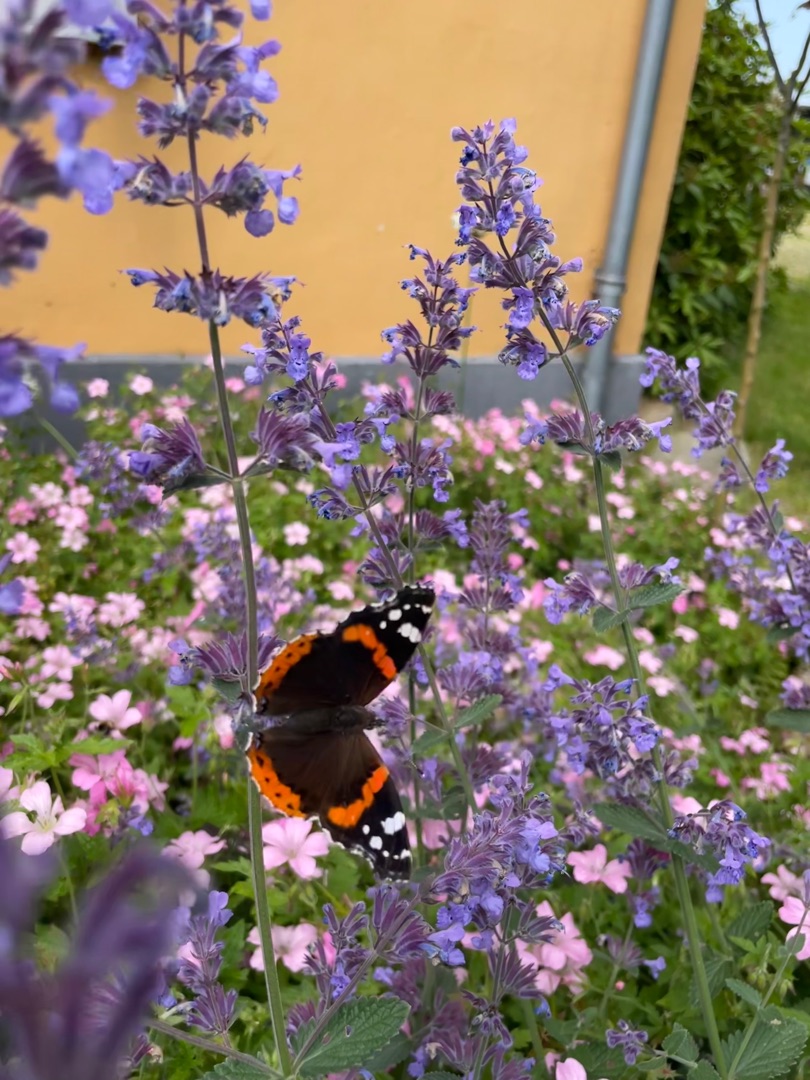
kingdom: Animalia
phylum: Arthropoda
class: Insecta
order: Lepidoptera
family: Nymphalidae
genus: Vanessa
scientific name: Vanessa atalanta
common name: Admiral
